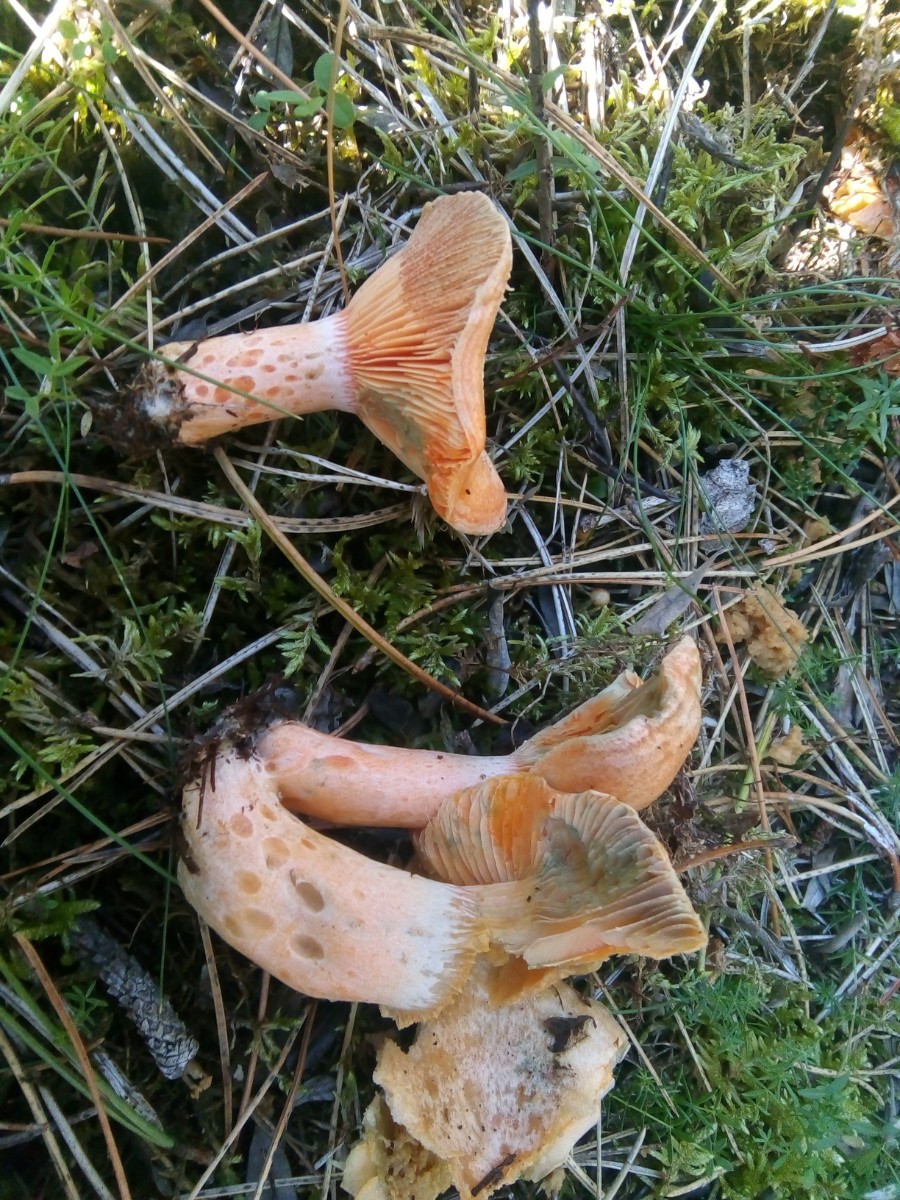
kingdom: Fungi
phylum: Basidiomycota
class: Agaricomycetes
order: Russulales
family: Russulaceae
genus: Lactarius
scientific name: Lactarius deliciosus
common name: velsmagende mælkehat
